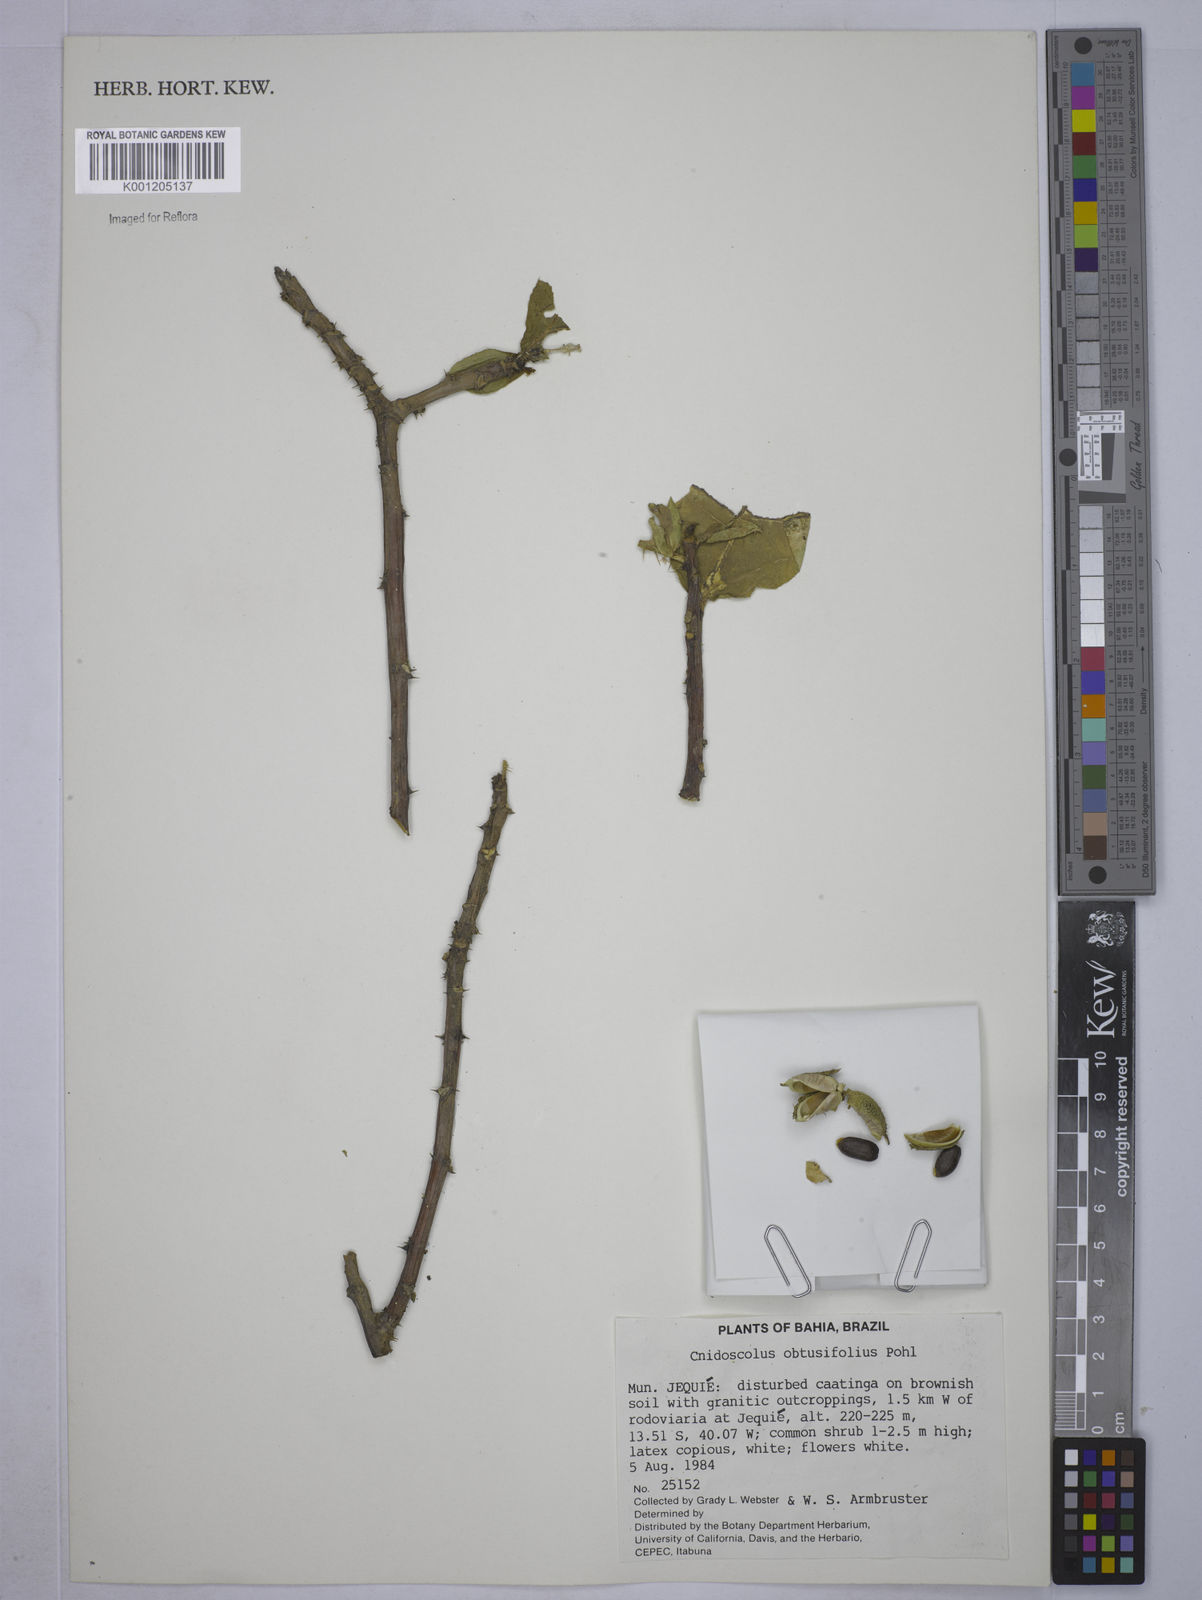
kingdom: Plantae
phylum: Tracheophyta
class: Magnoliopsida
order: Malpighiales
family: Euphorbiaceae
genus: Cnidoscolus
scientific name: Cnidoscolus
